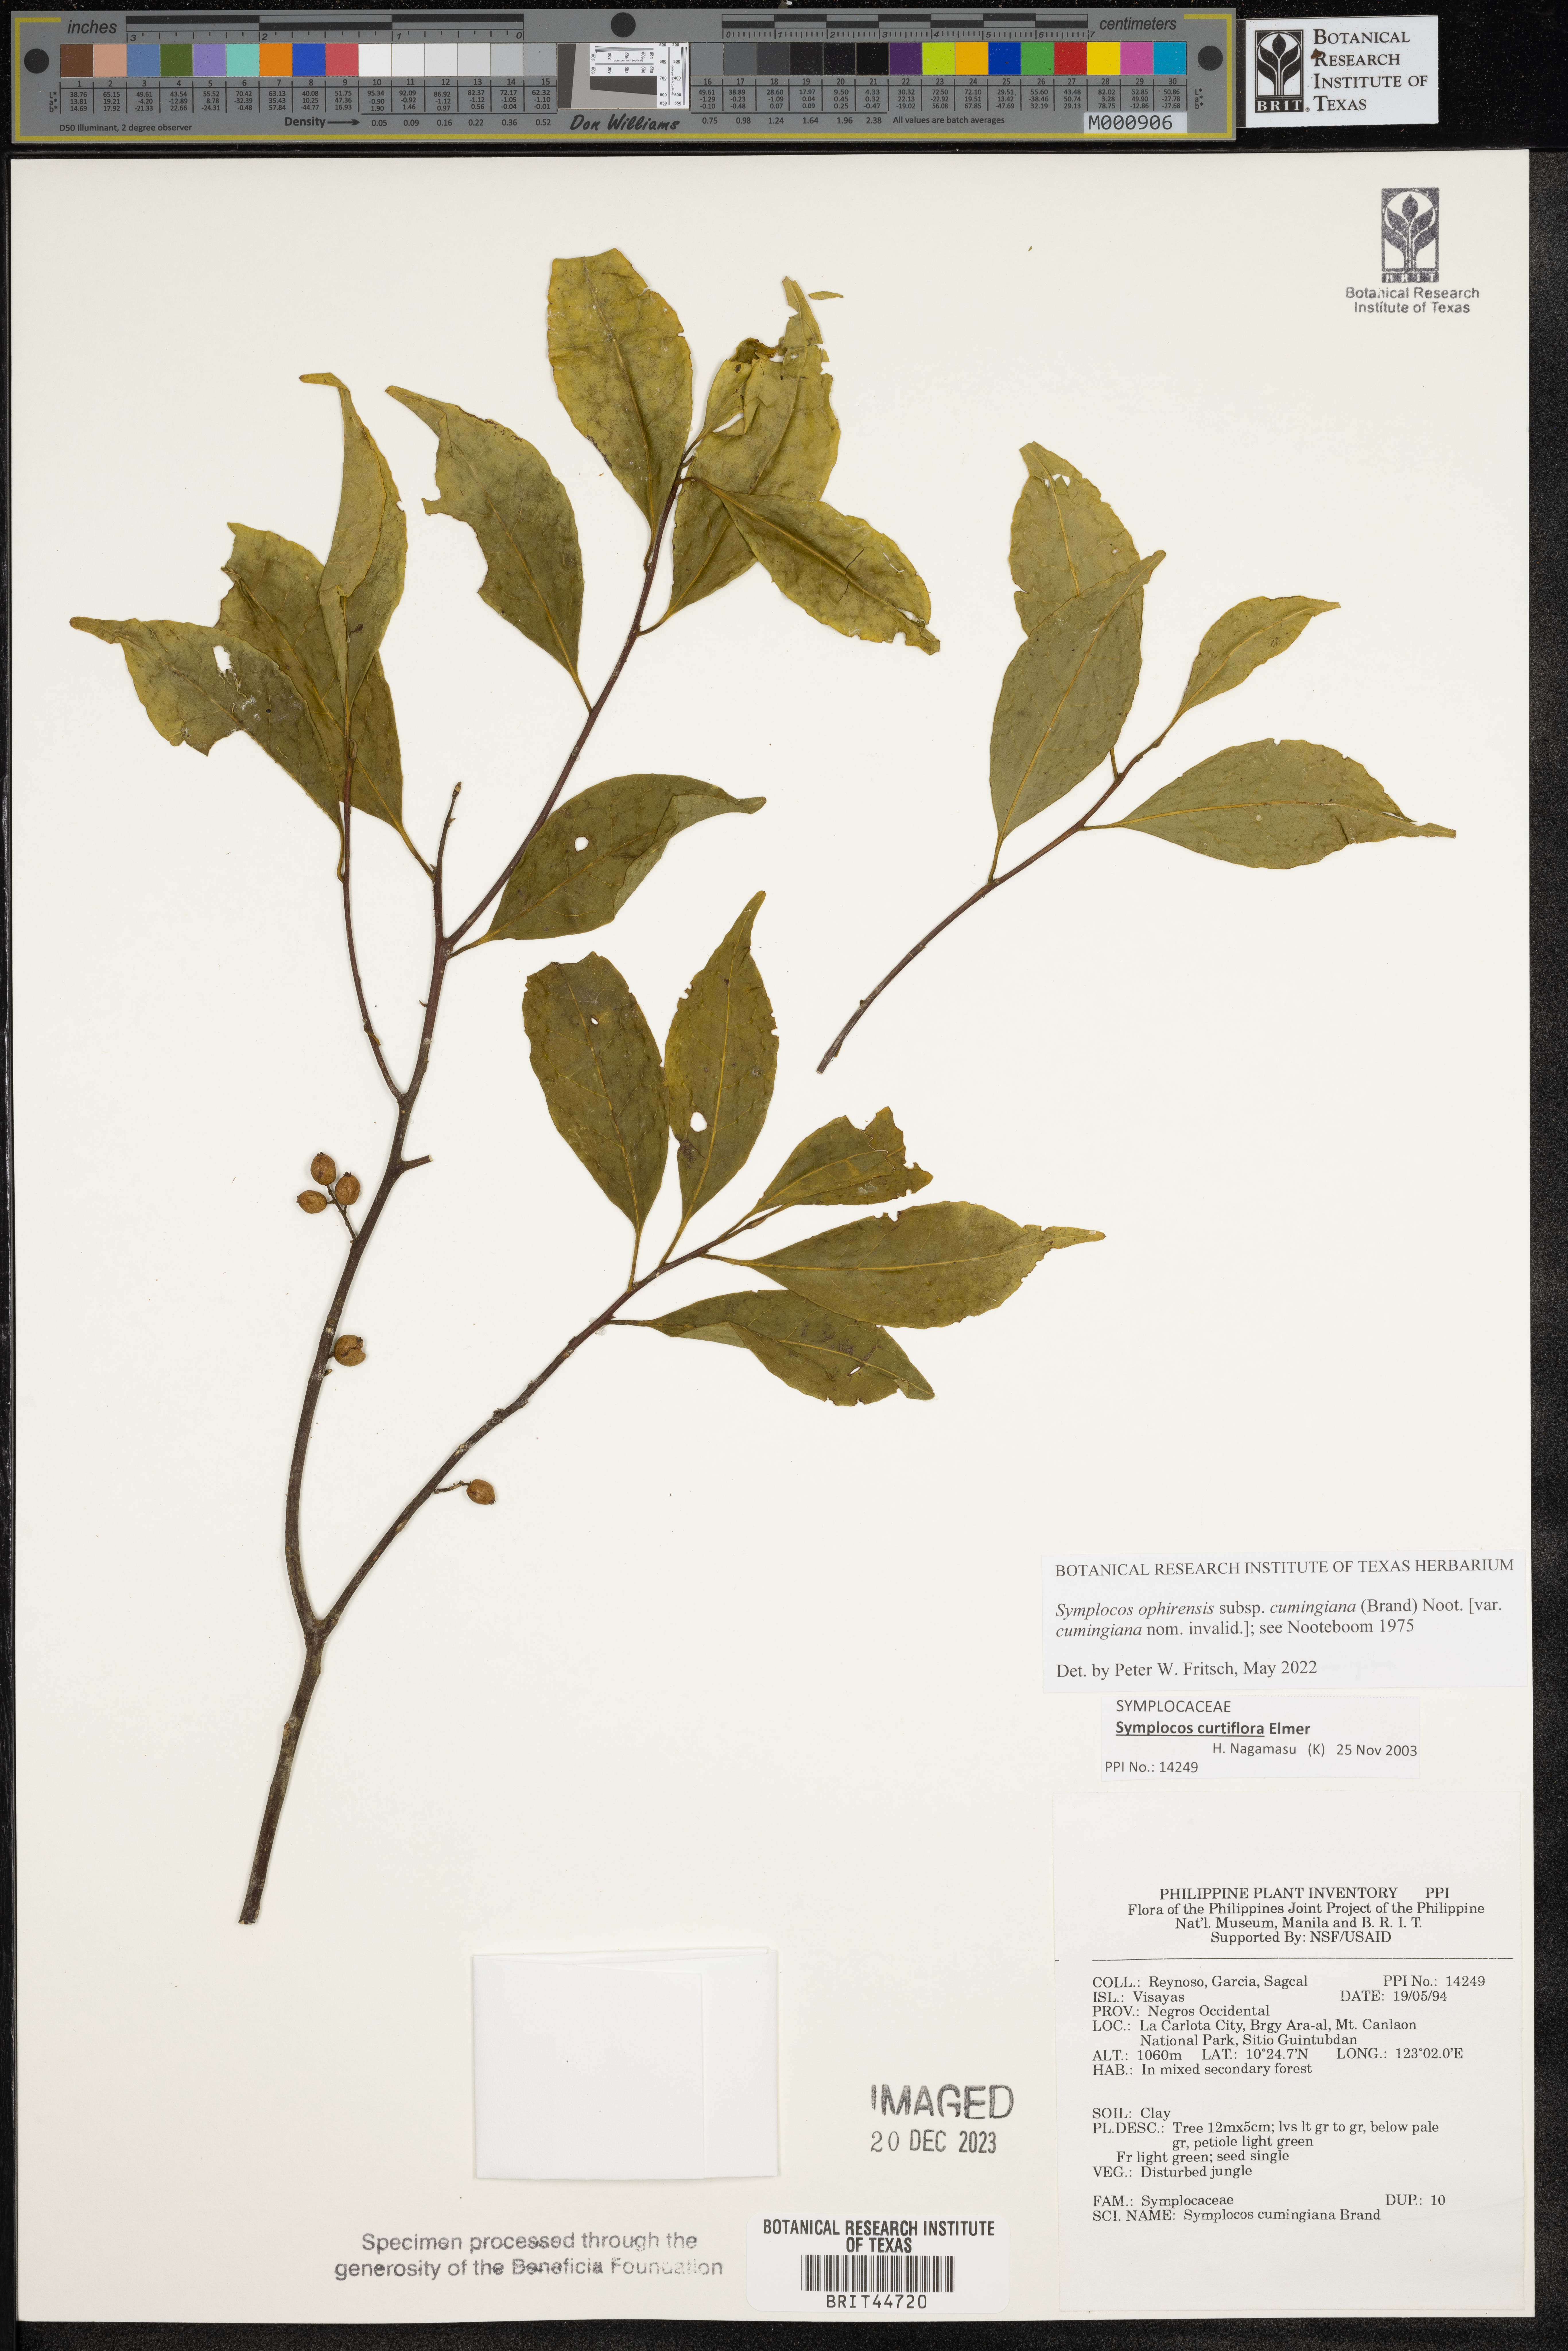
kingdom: Plantae
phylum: Tracheophyta
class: Magnoliopsida
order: Ericales
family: Symplocaceae
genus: Symplocos
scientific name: Symplocos ophirensis
